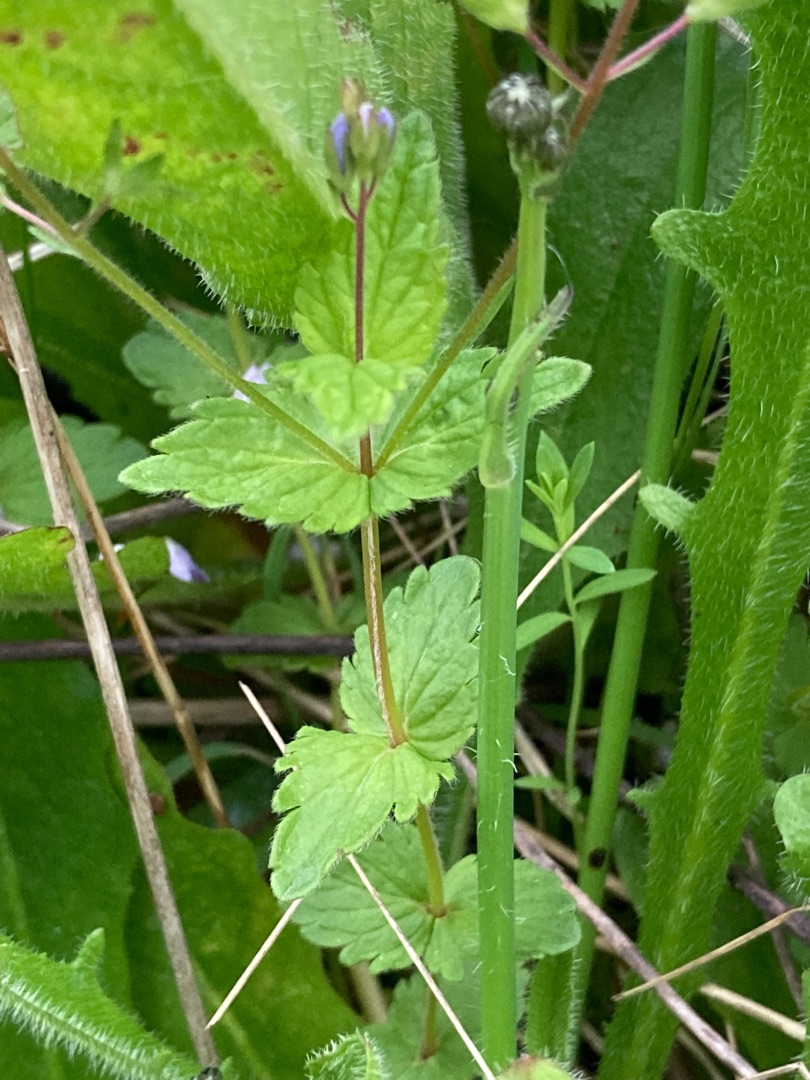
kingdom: Plantae
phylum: Tracheophyta
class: Magnoliopsida
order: Lamiales
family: Plantaginaceae
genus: Veronica
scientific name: Veronica chamaedrys
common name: Tveskægget ærenpris
